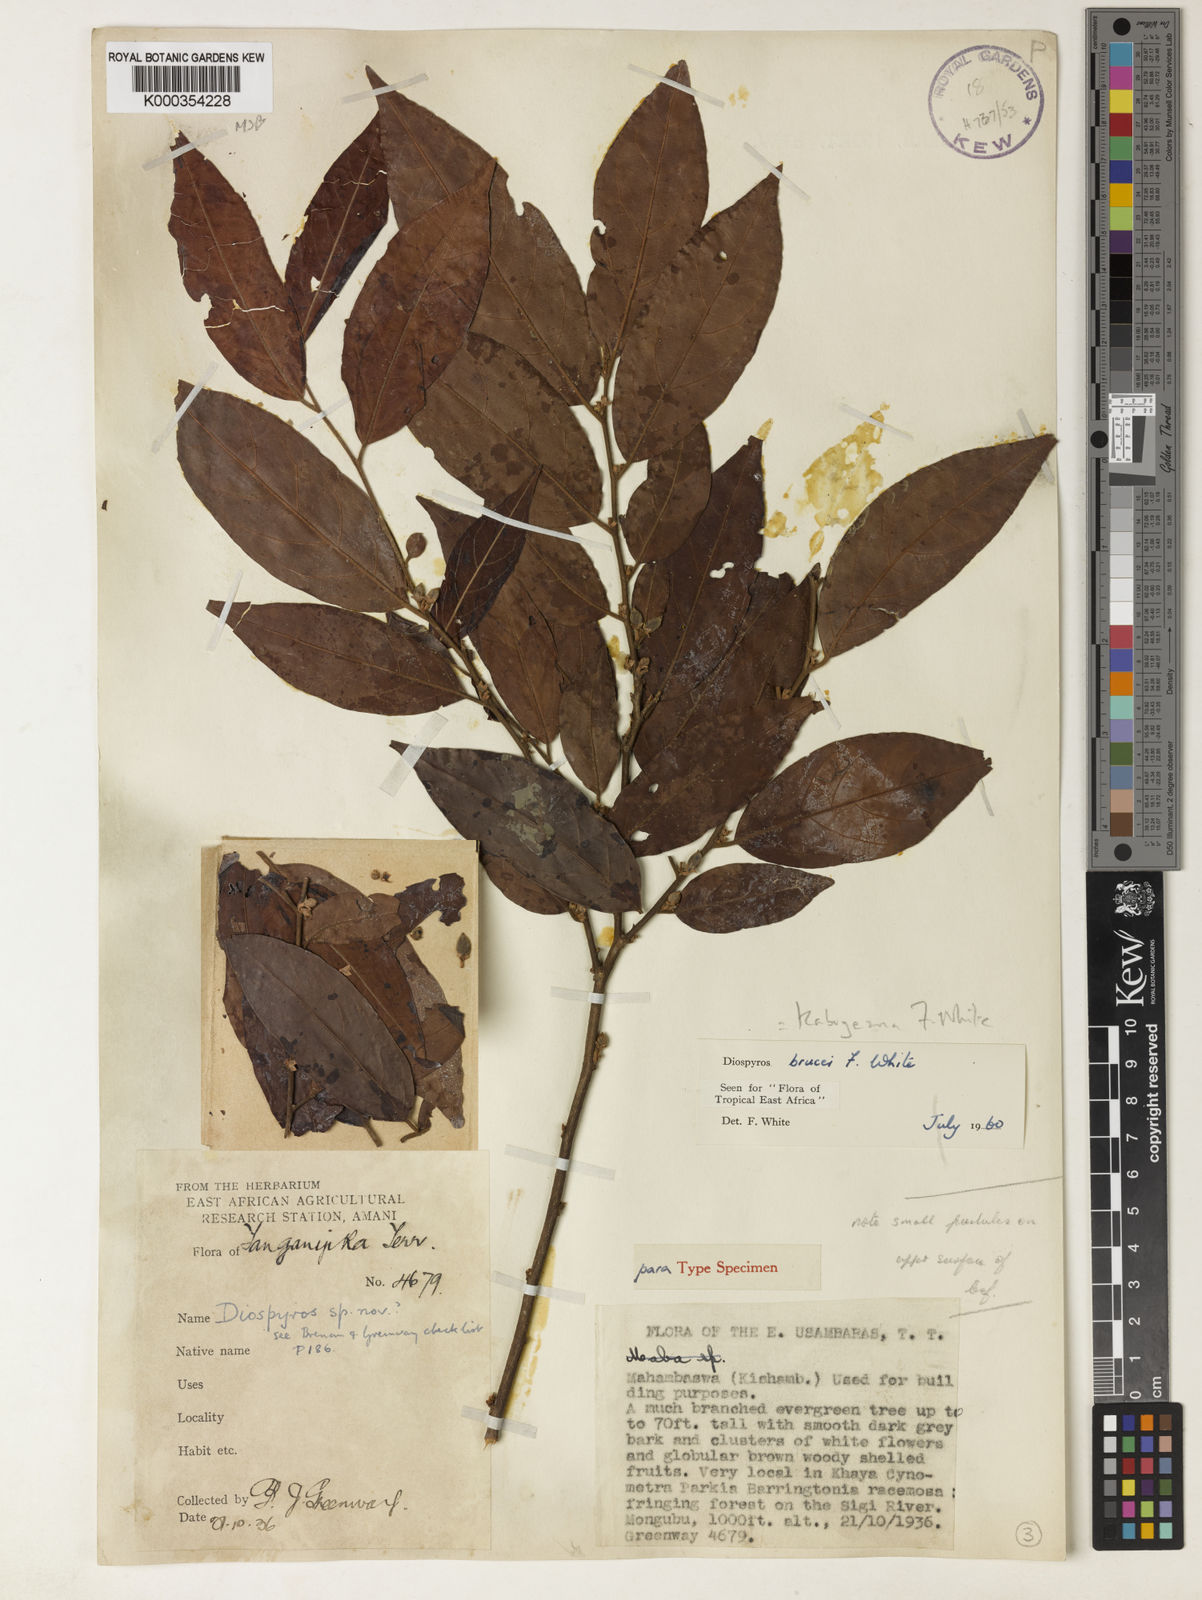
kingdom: Plantae
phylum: Tracheophyta
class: Magnoliopsida
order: Ericales
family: Ebenaceae
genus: Diospyros
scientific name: Diospyros kabuyeana
